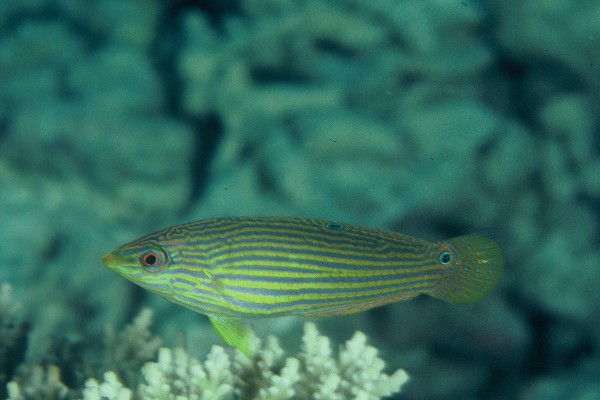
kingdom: Animalia
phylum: Chordata
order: Perciformes
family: Labridae
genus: Halichoeres
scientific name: Halichoeres vrolikii
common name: Indian ocean pinstriped wrasse
